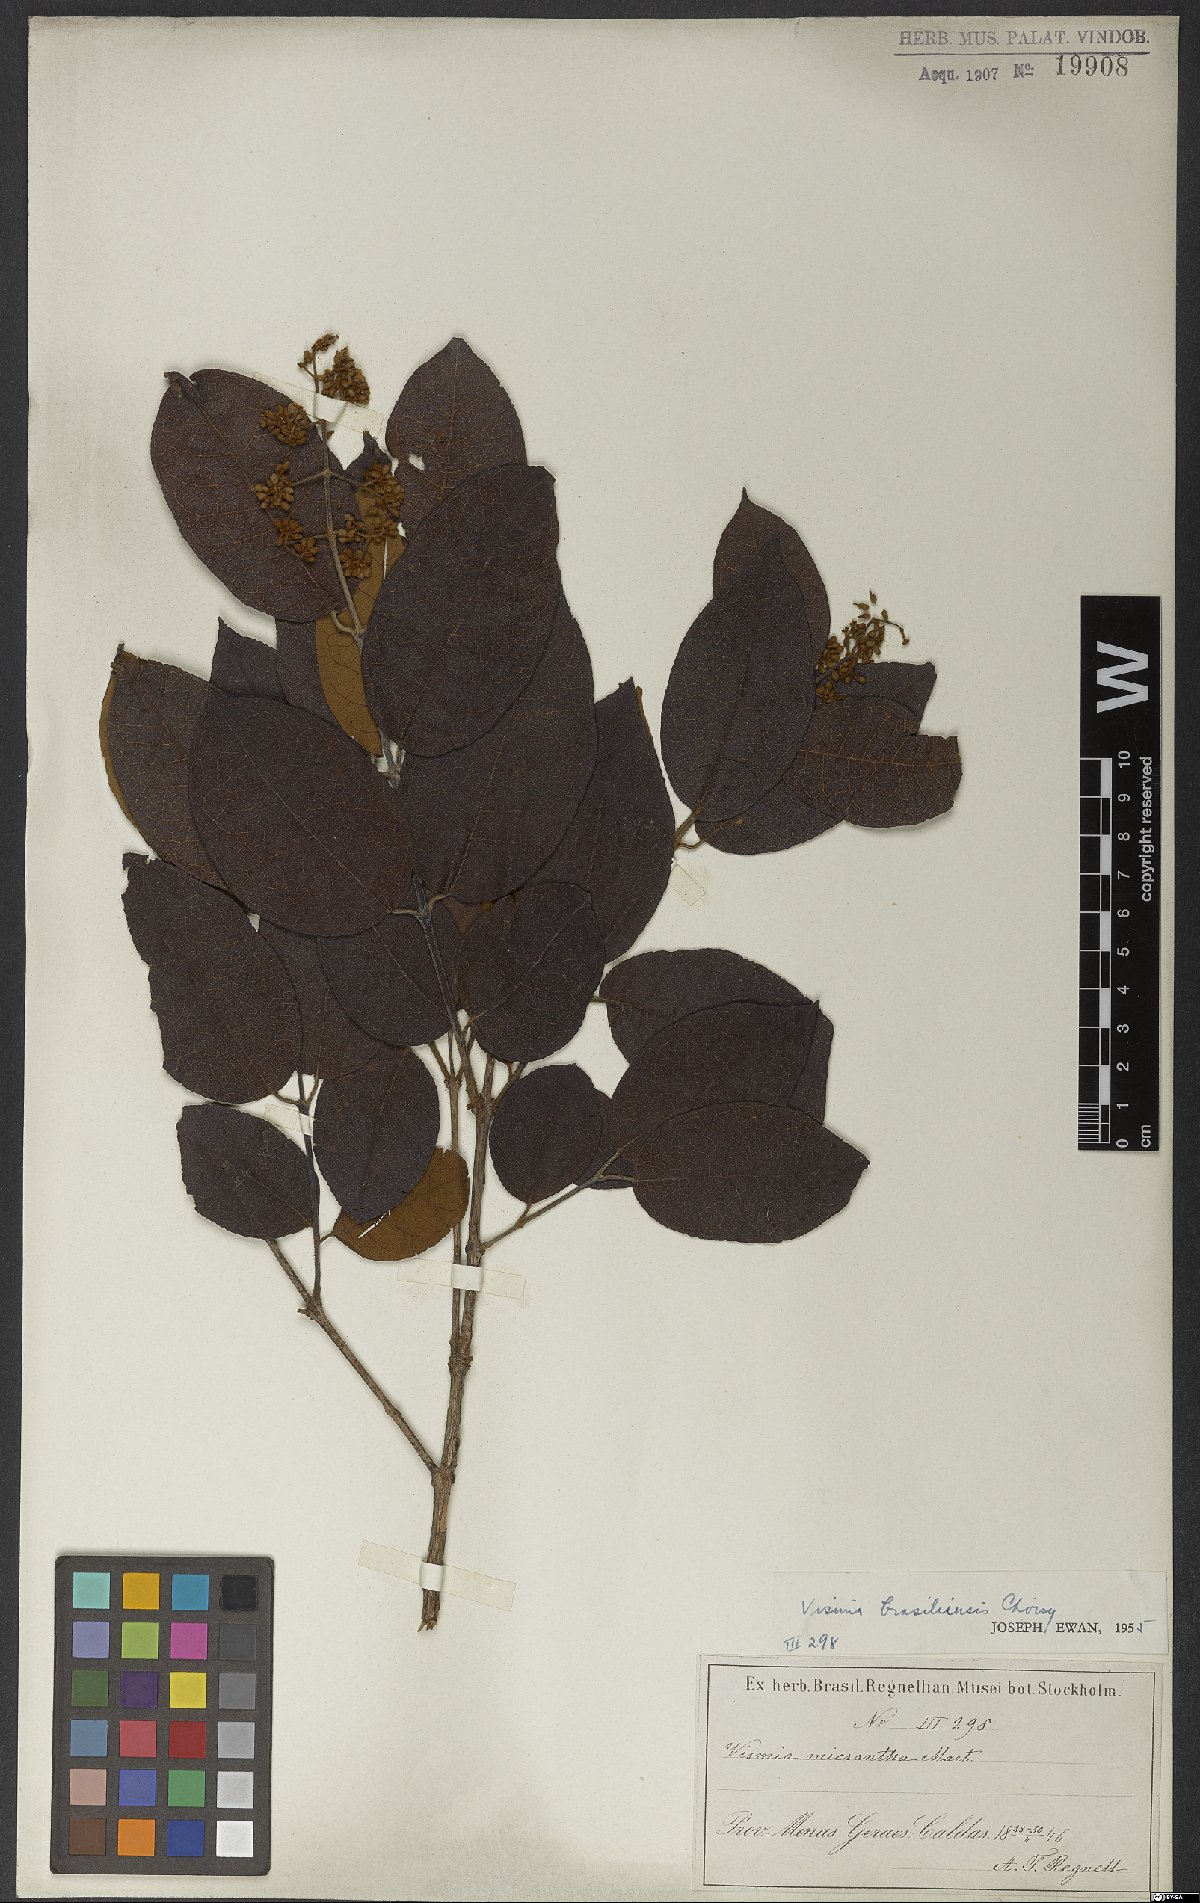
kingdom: Plantae
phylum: Tracheophyta
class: Magnoliopsida
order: Malpighiales
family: Hypericaceae
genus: Vismia
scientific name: Vismia brasiliensis
